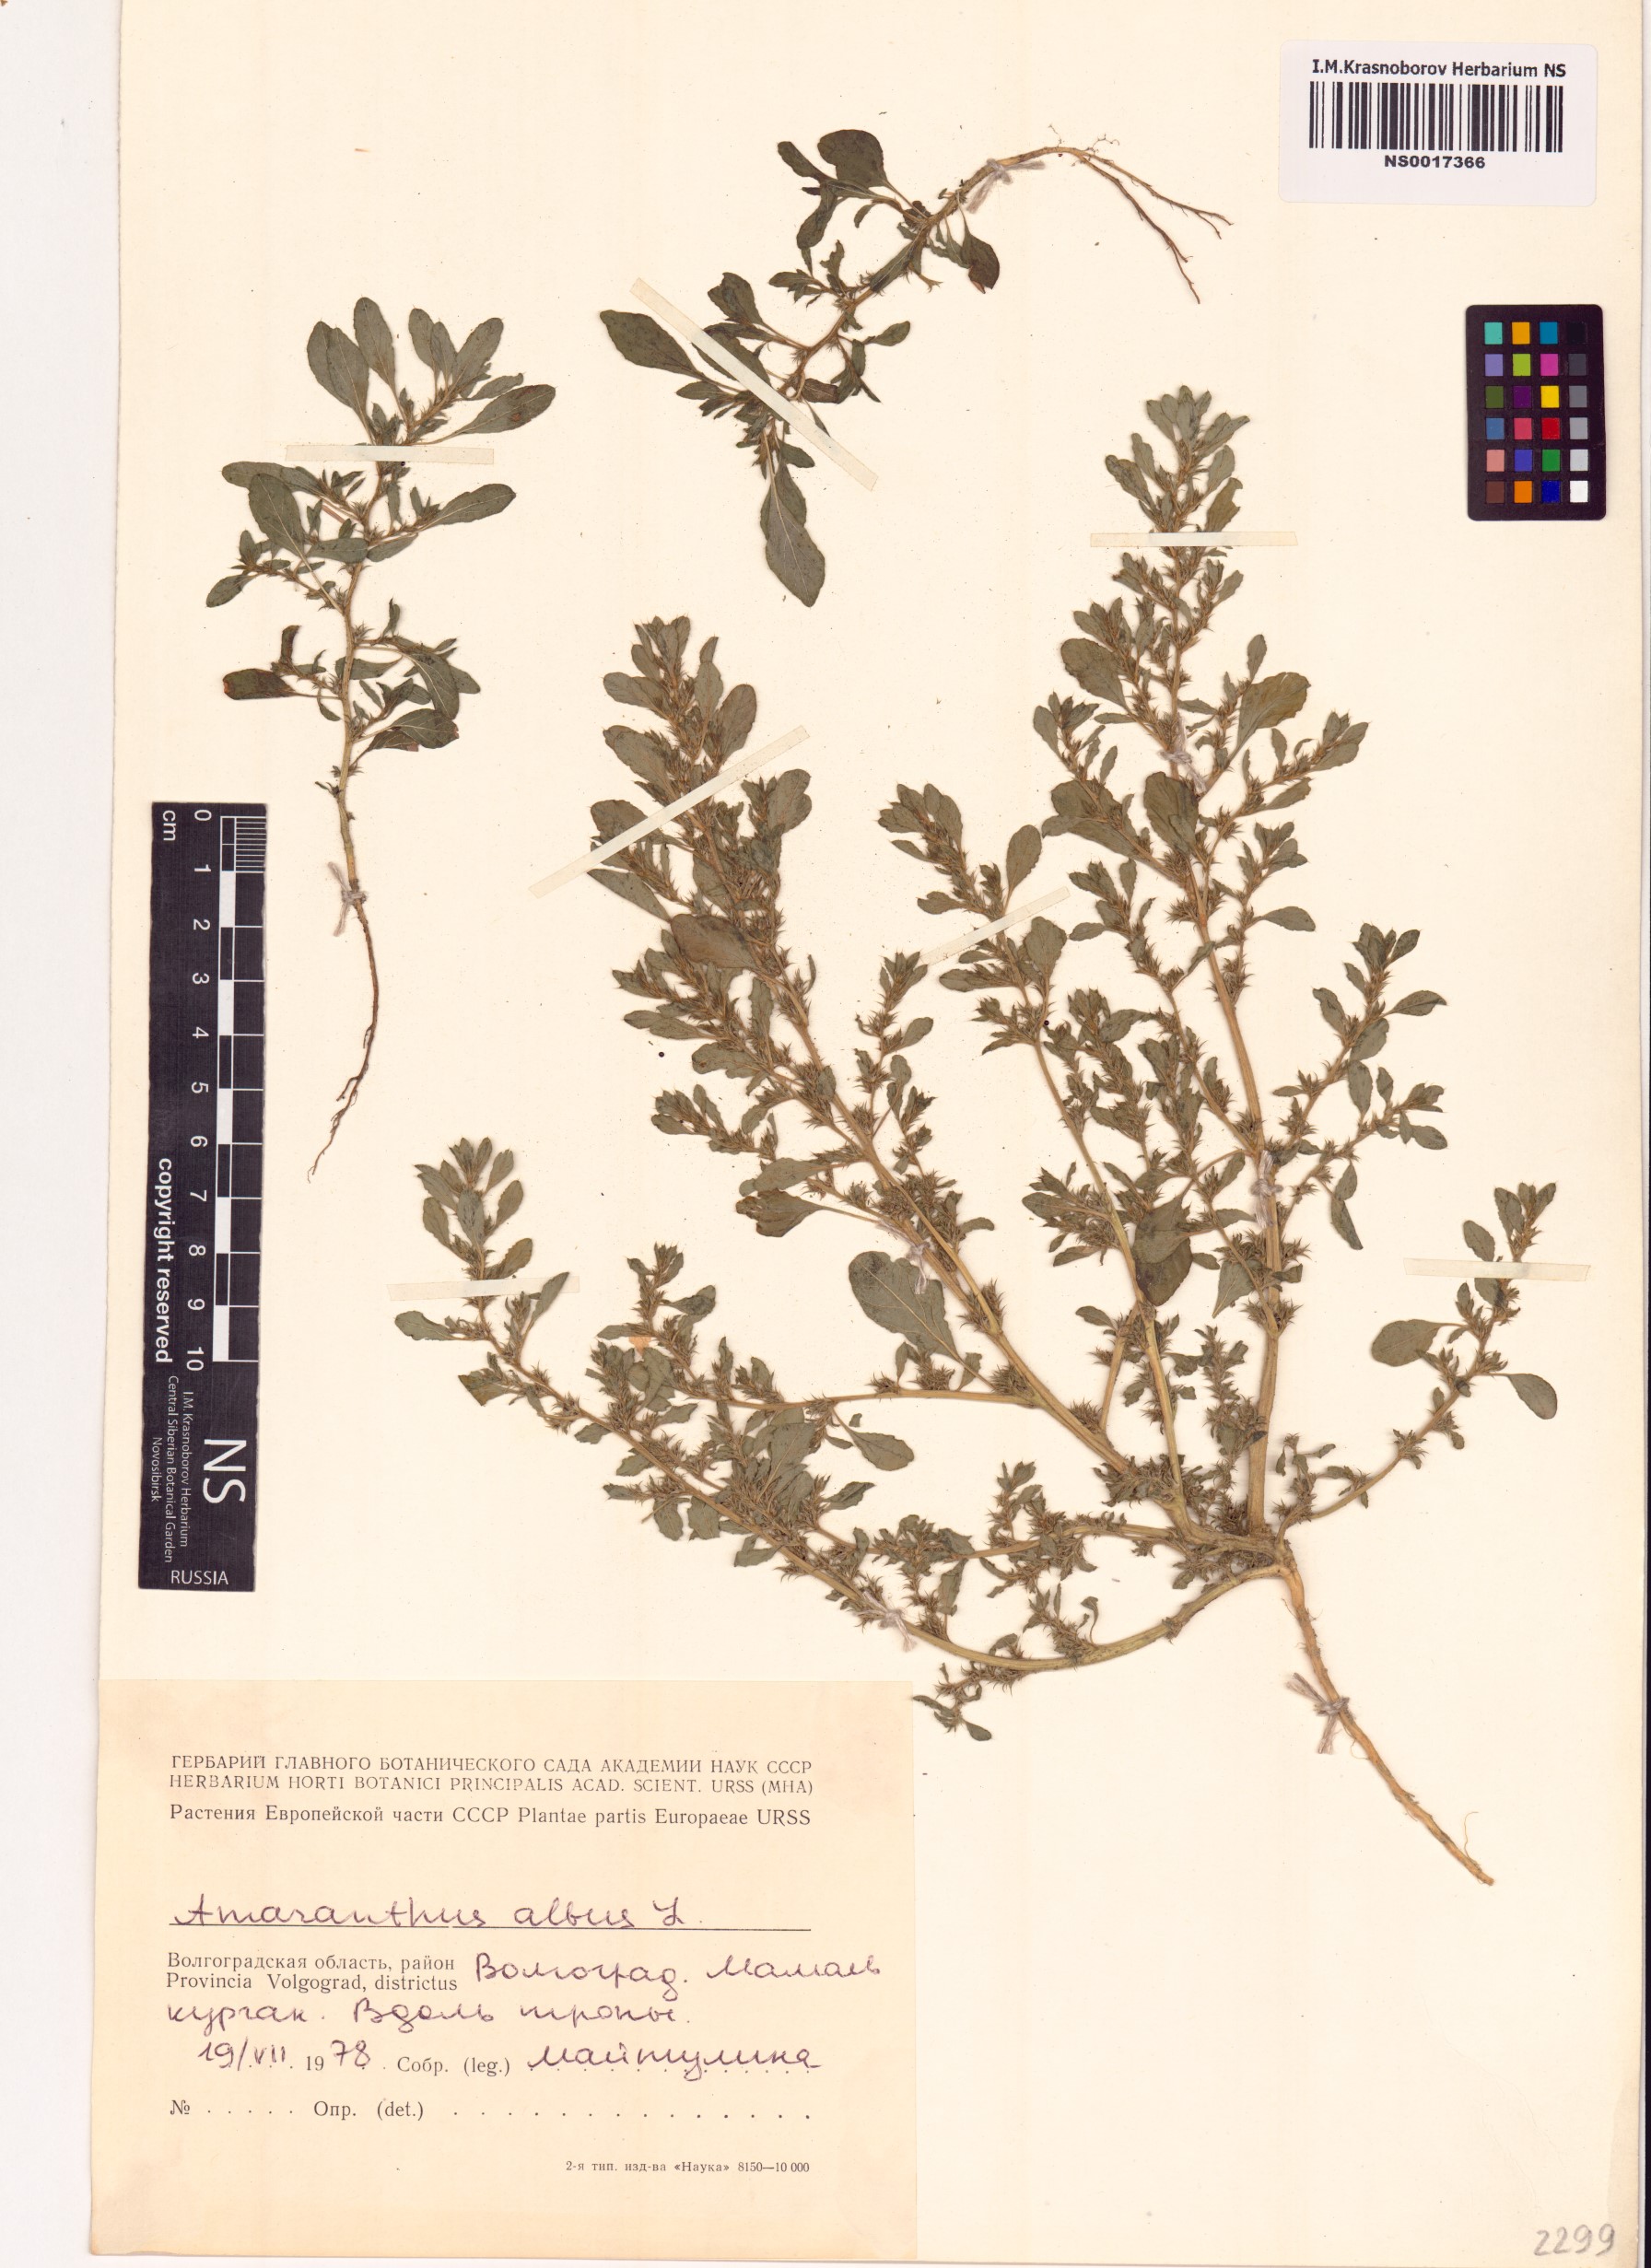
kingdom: Plantae
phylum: Tracheophyta
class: Magnoliopsida
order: Caryophyllales
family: Amaranthaceae
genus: Amaranthus
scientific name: Amaranthus albus
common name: White pigweed
